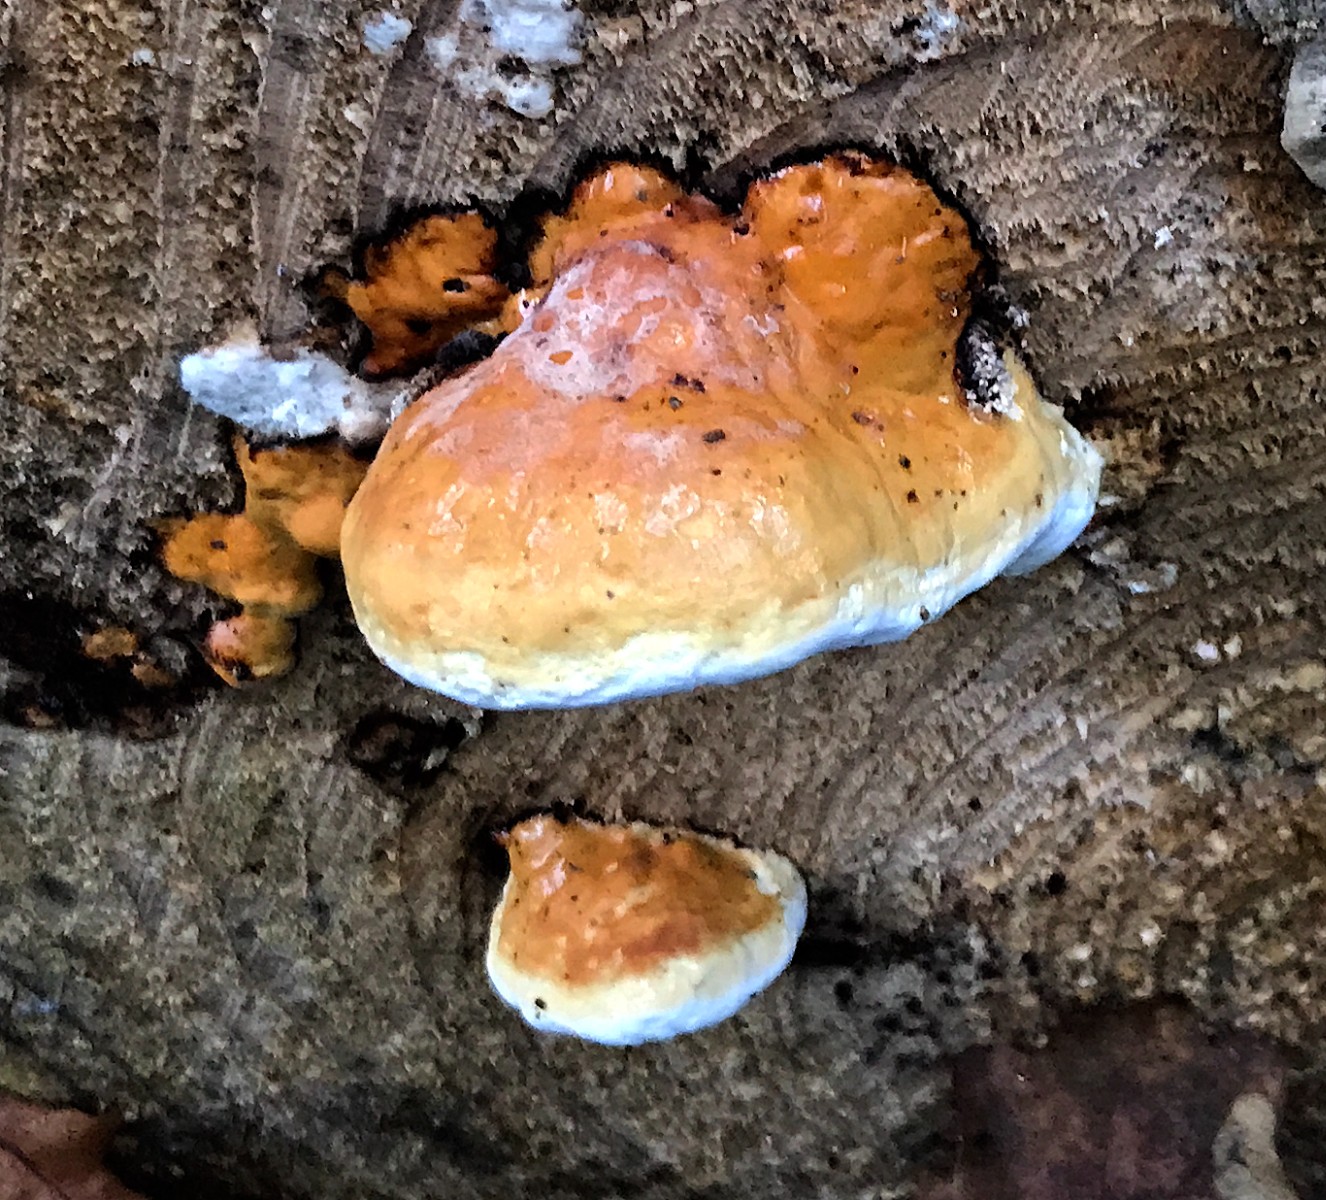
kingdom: Fungi
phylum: Basidiomycota
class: Agaricomycetes
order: Polyporales
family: Fomitopsidaceae
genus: Fomitopsis
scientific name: Fomitopsis pinicola
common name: randbæltet hovporesvamp
